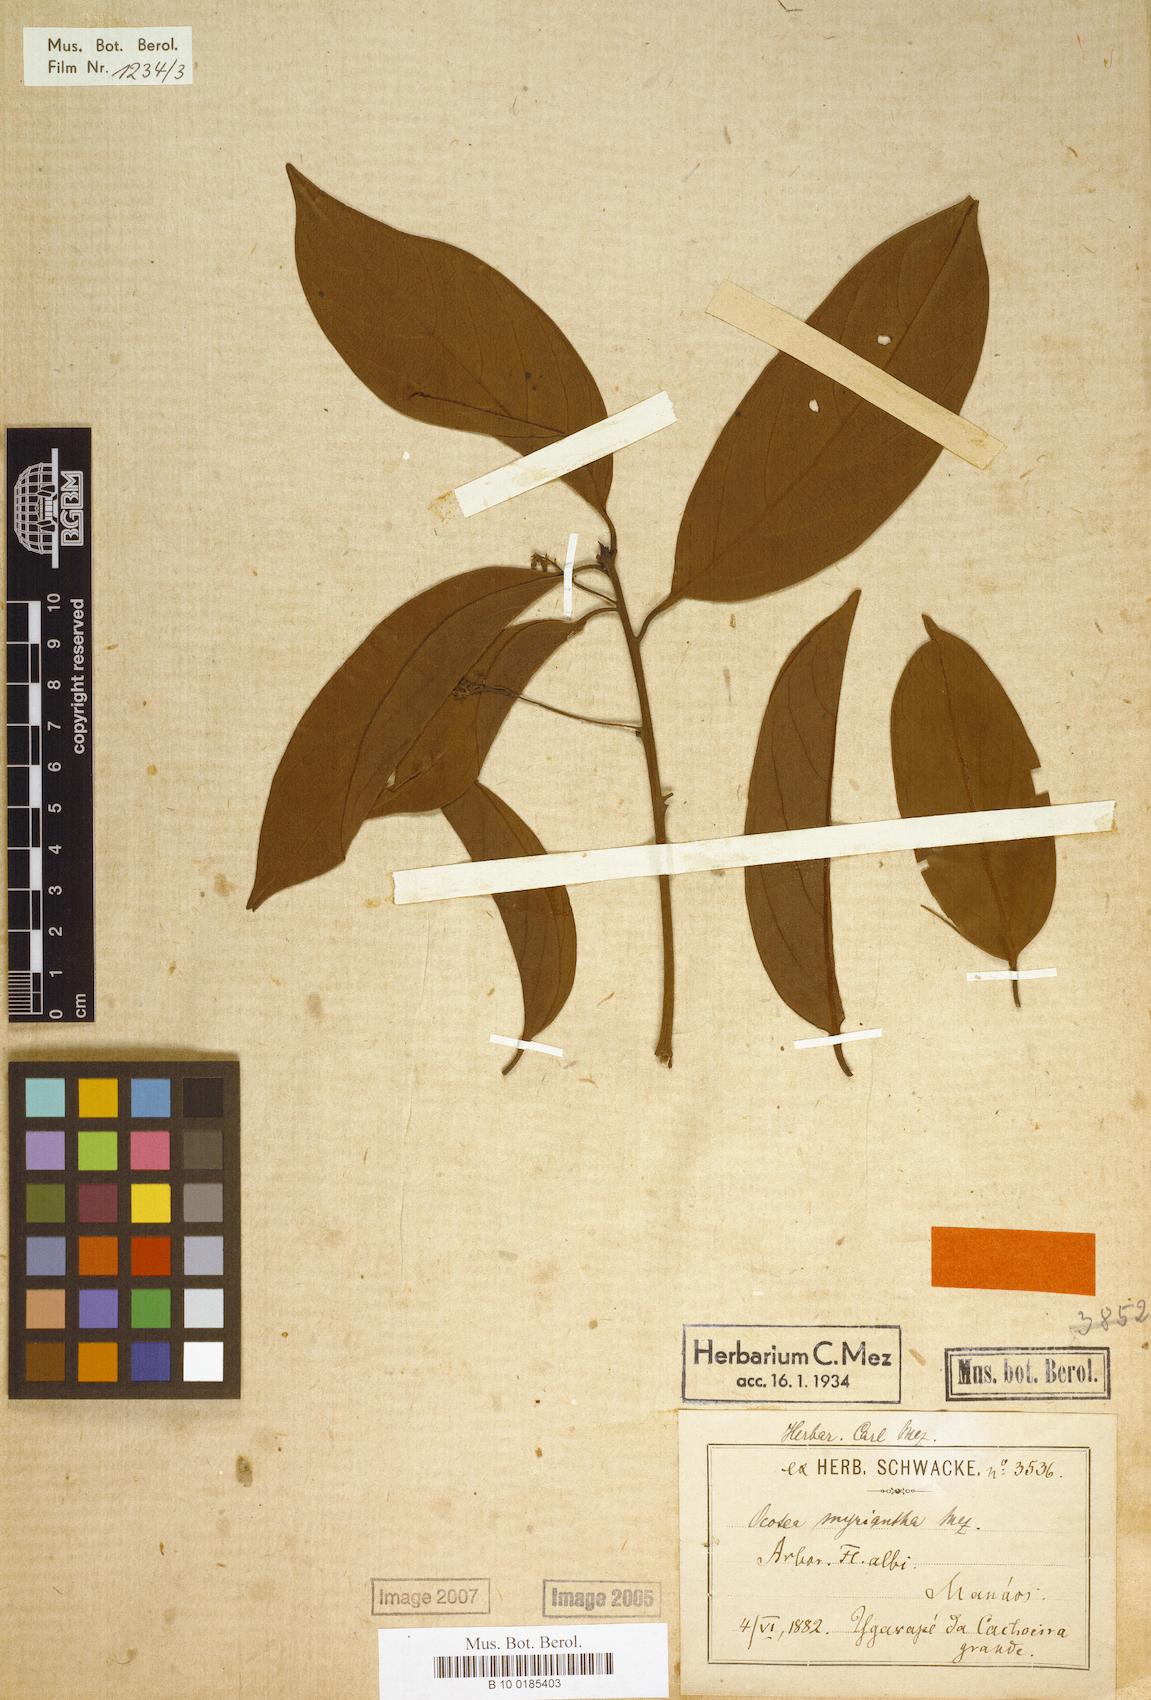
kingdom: Plantae
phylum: Tracheophyta
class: Magnoliopsida
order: Laurales
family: Lauraceae
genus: Ocotea
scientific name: Ocotea myriantha
